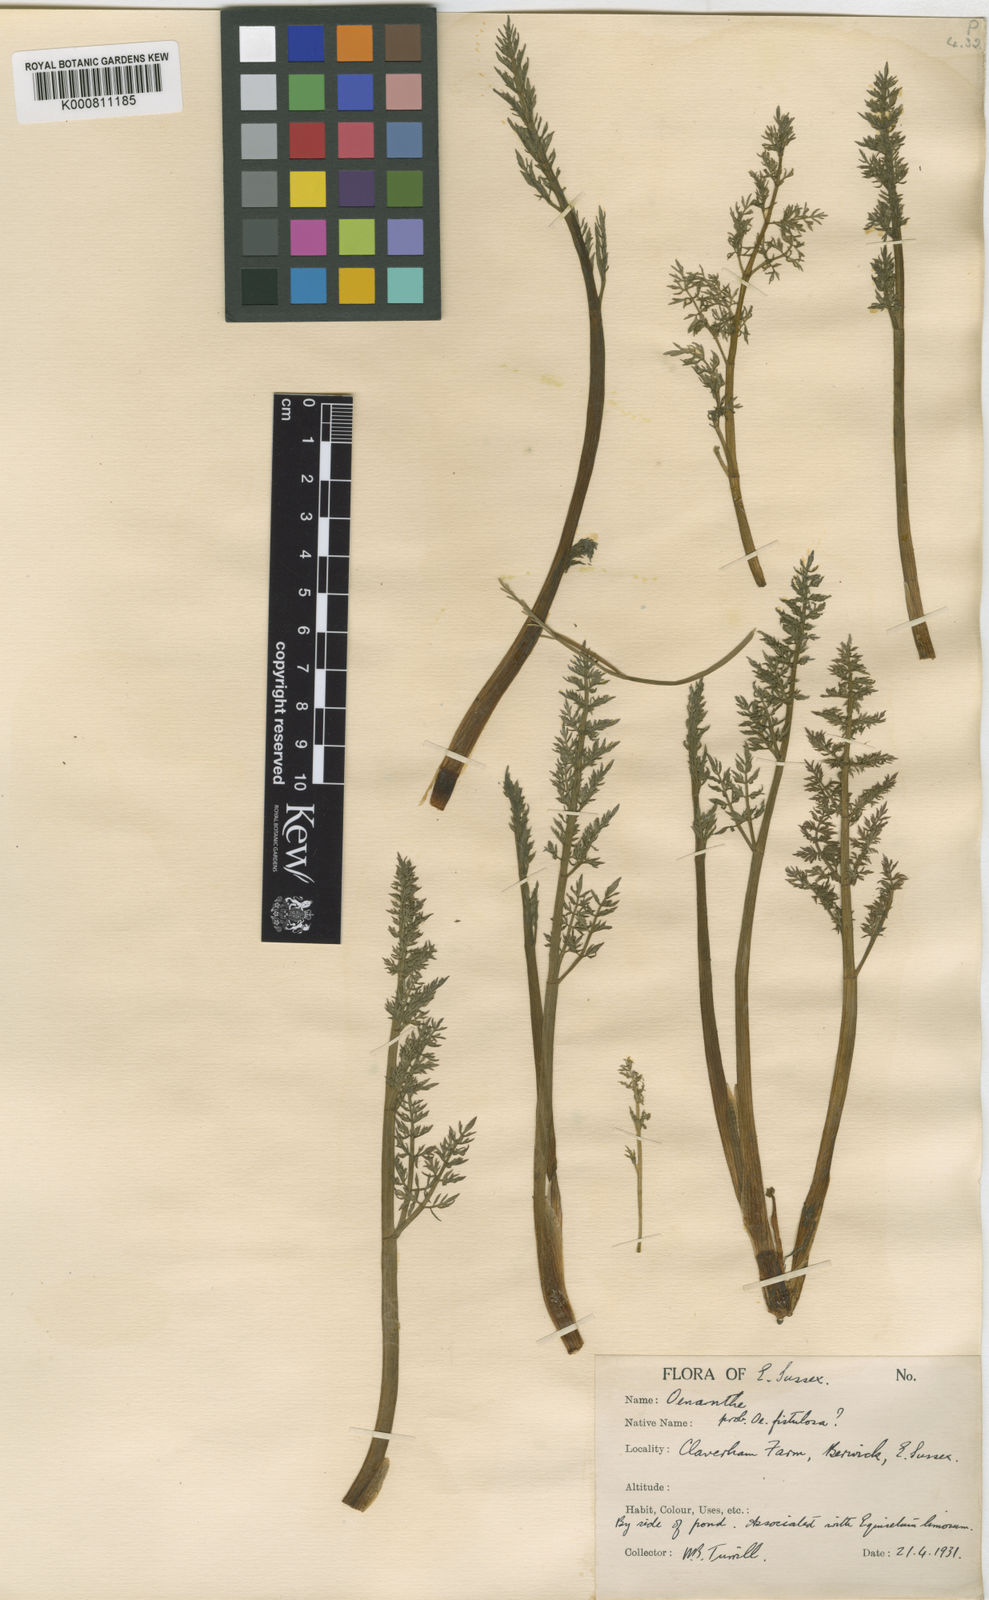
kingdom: Plantae
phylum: Tracheophyta
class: Magnoliopsida
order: Apiales
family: Apiaceae
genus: Oenanthe
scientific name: Oenanthe fistulosa
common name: Tubular water-dropwort
